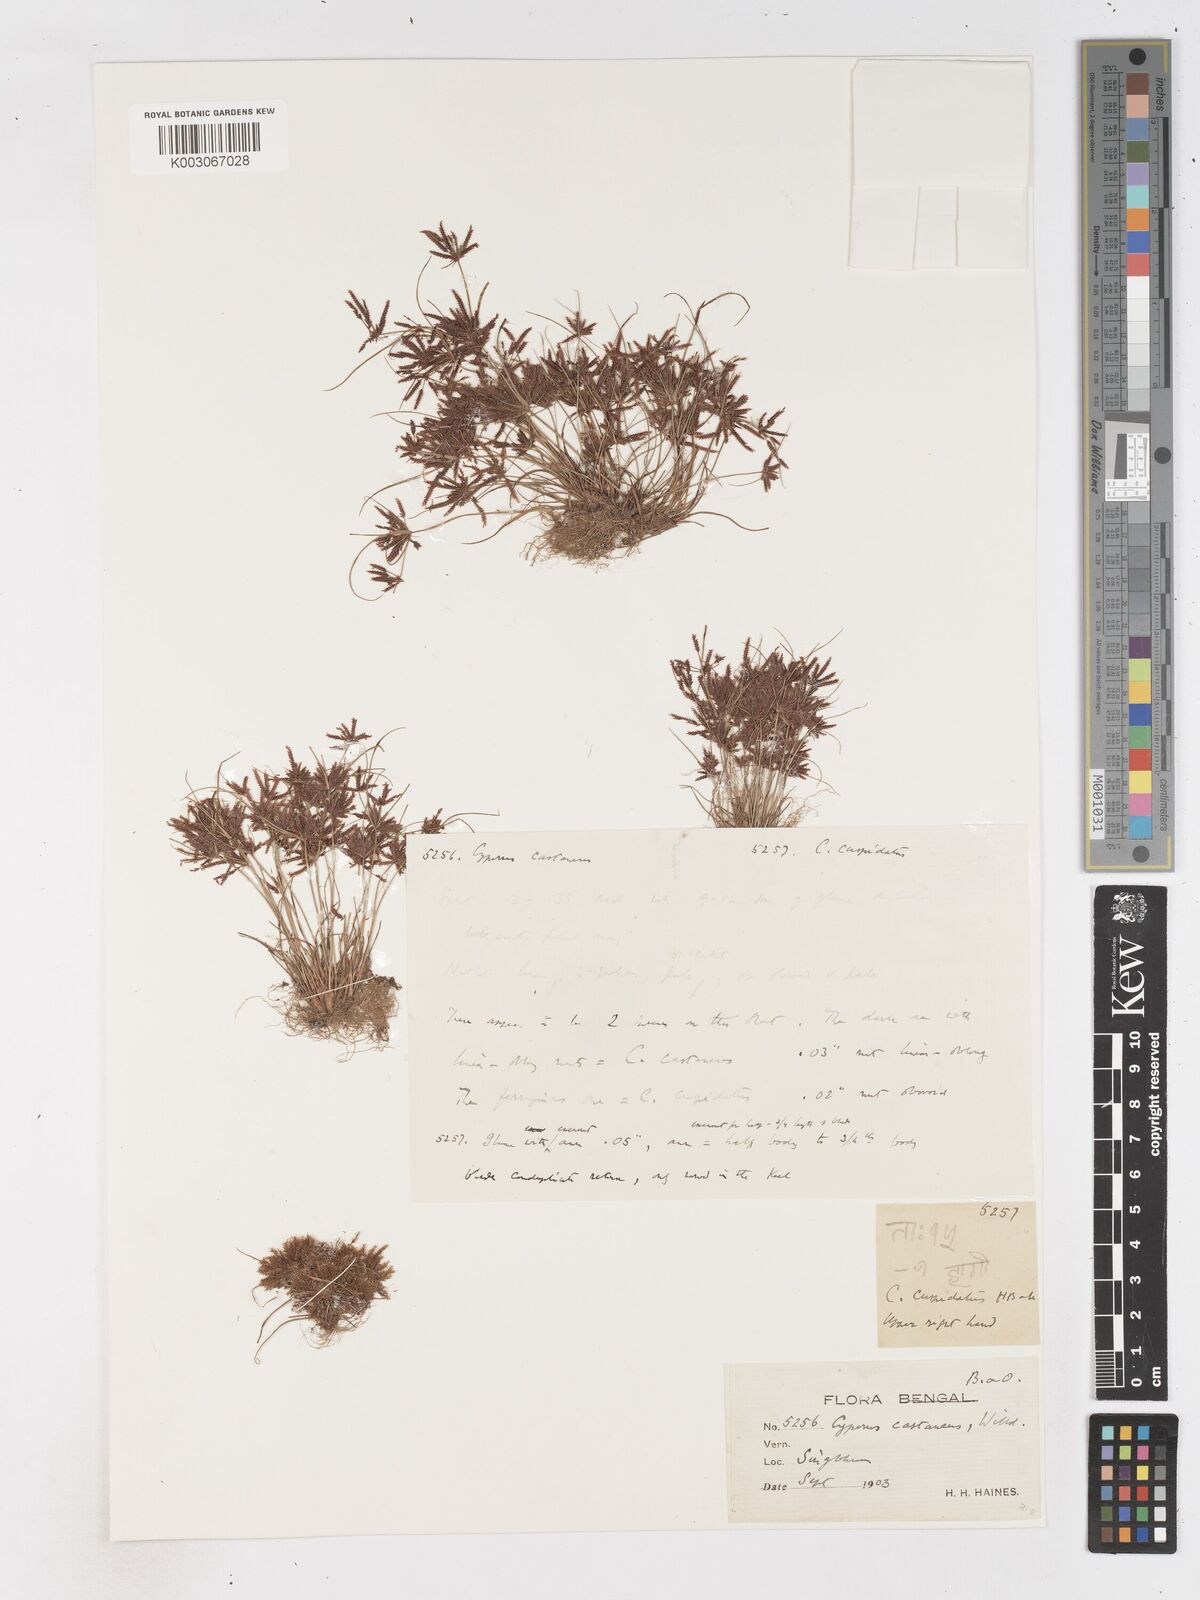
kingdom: Plantae
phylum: Tracheophyta
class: Liliopsida
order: Poales
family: Cyperaceae
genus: Cyperus
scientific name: Cyperus castaneus
